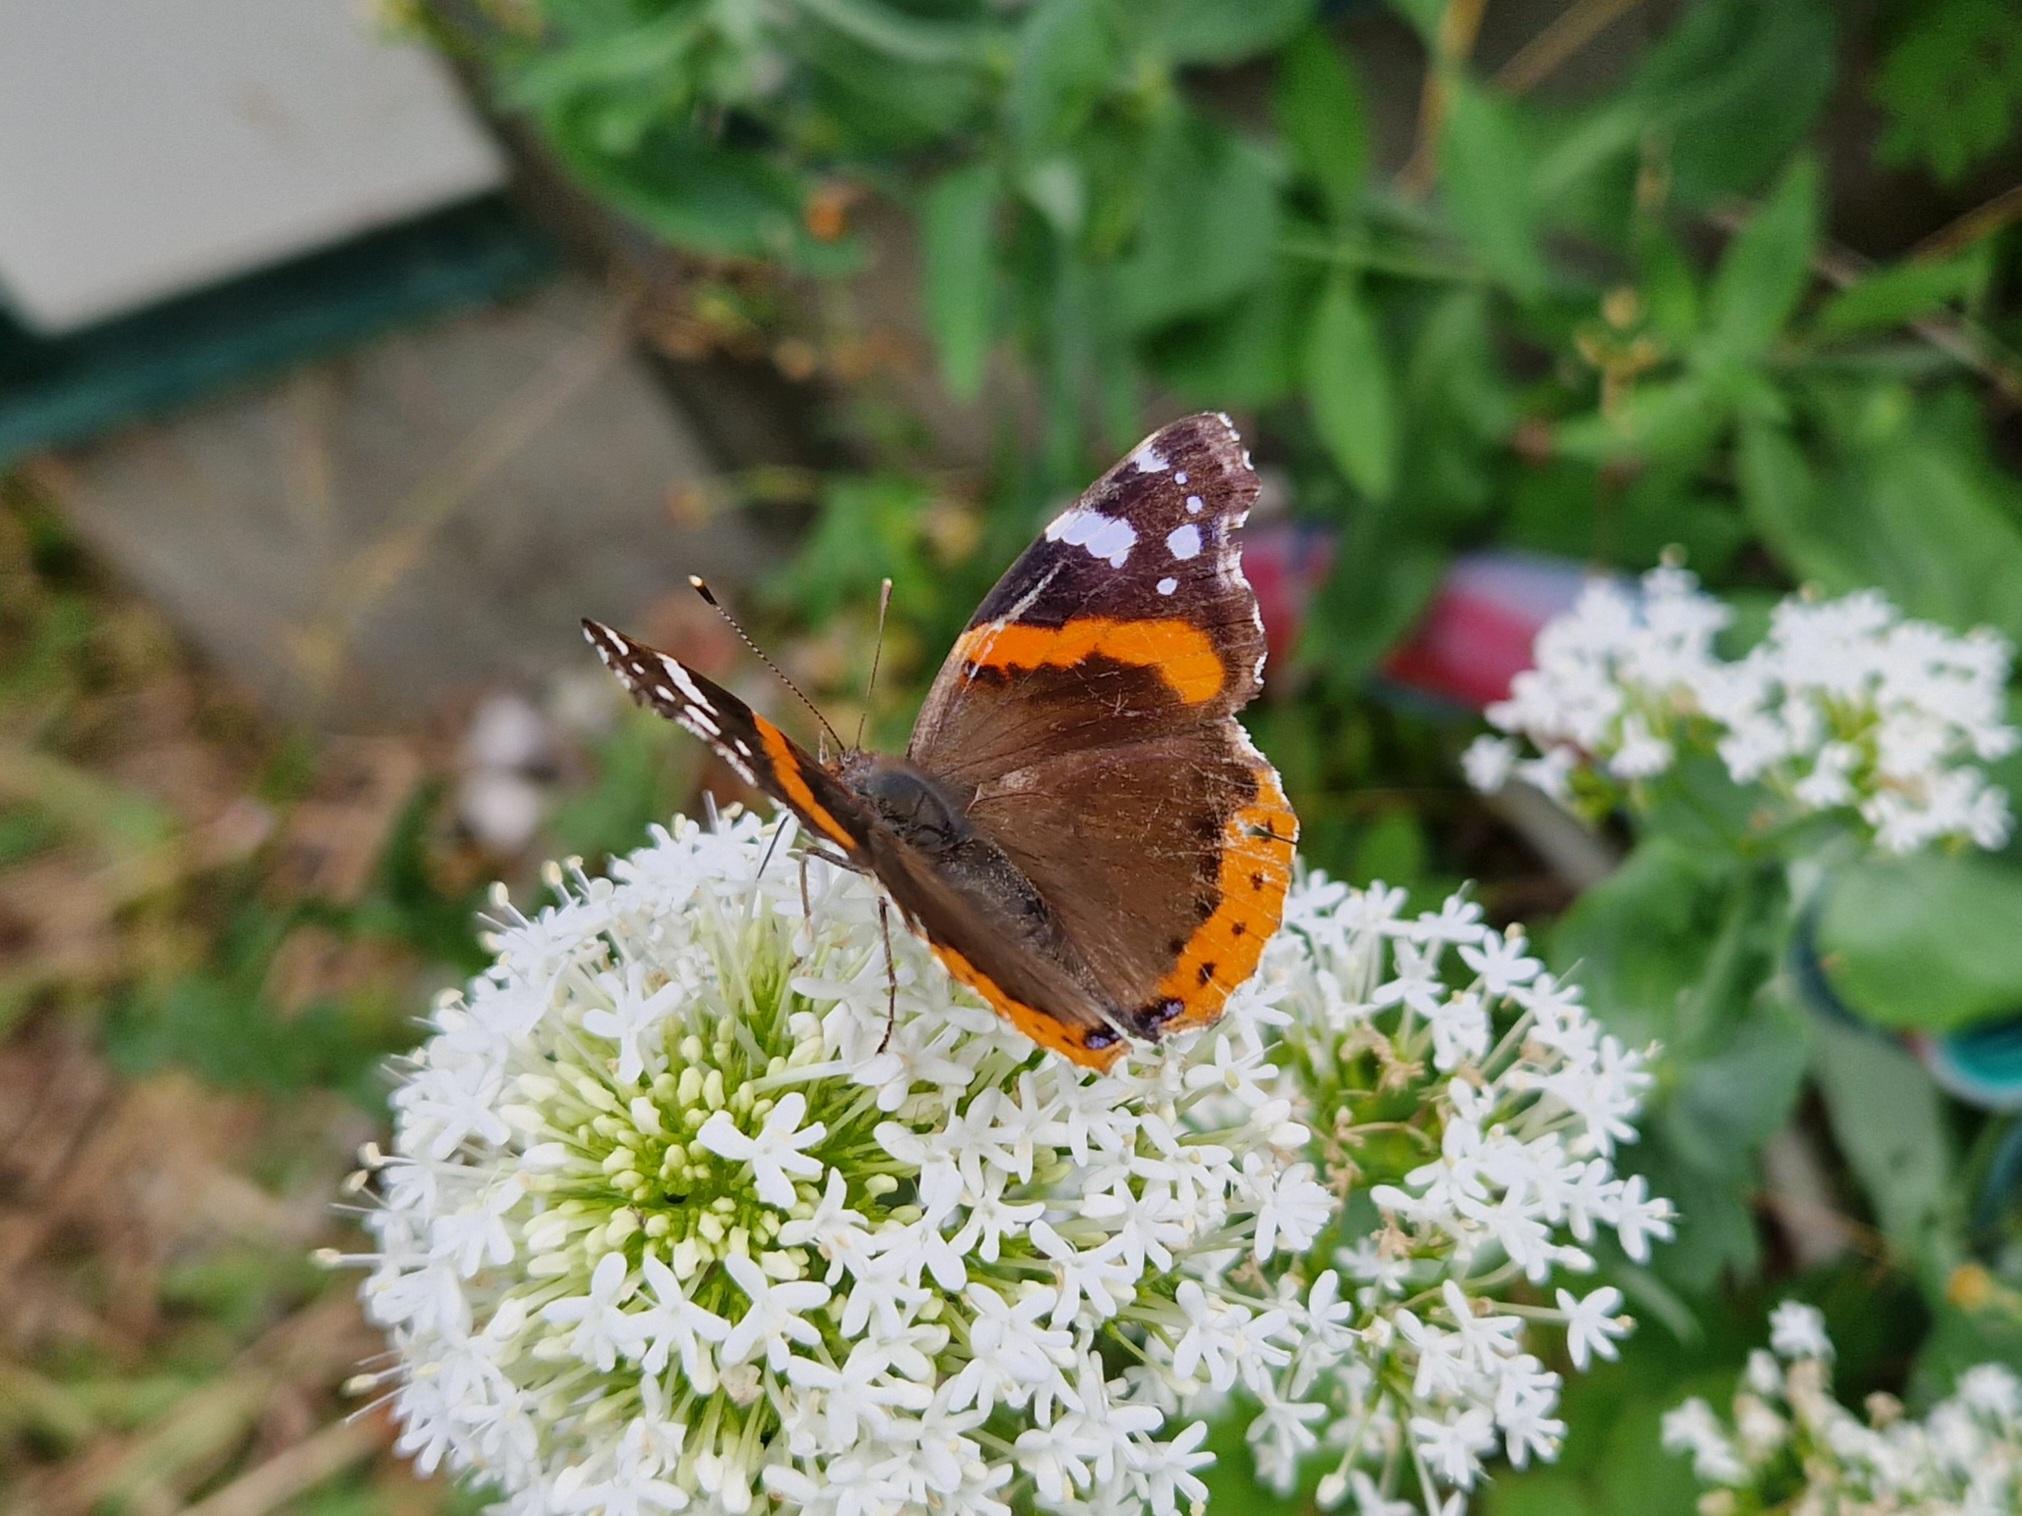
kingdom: Animalia
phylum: Arthropoda
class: Insecta
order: Lepidoptera
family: Nymphalidae
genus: Vanessa
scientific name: Vanessa atalanta
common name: Admiral
